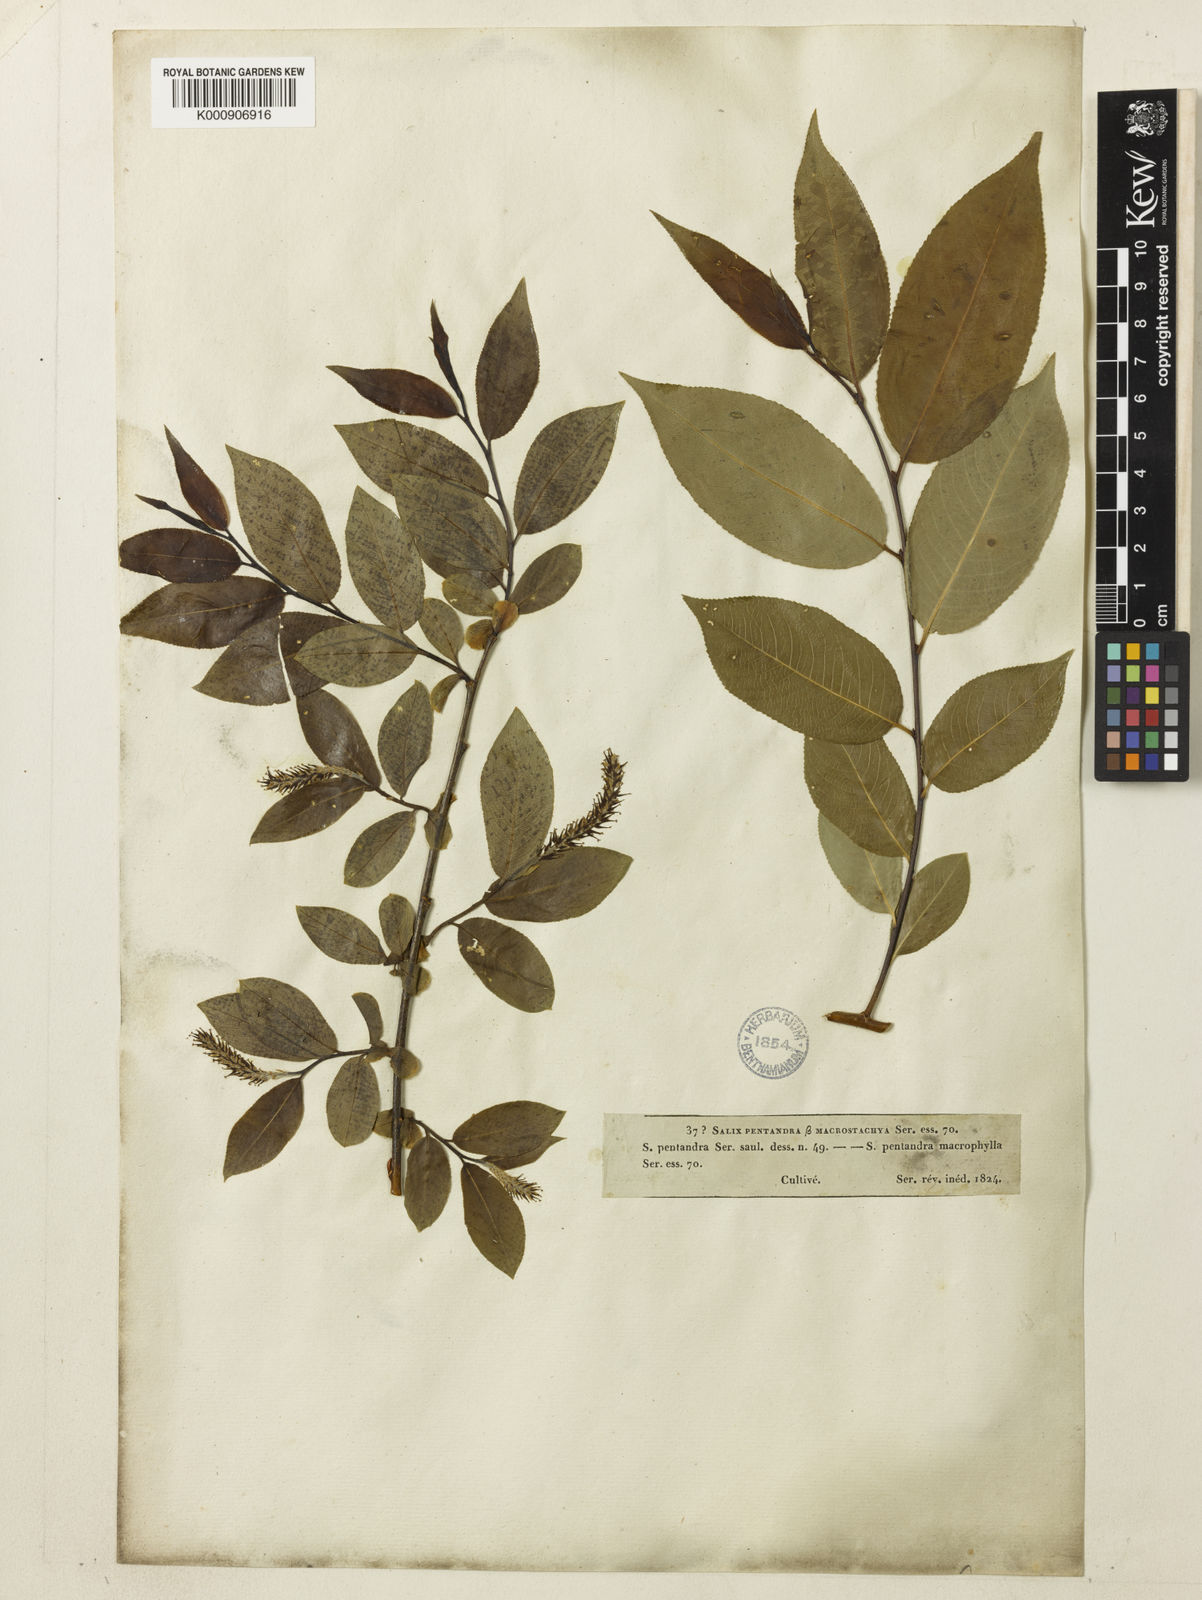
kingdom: Plantae
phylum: Tracheophyta
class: Magnoliopsida
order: Malpighiales
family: Salicaceae
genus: Salix
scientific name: Salix
